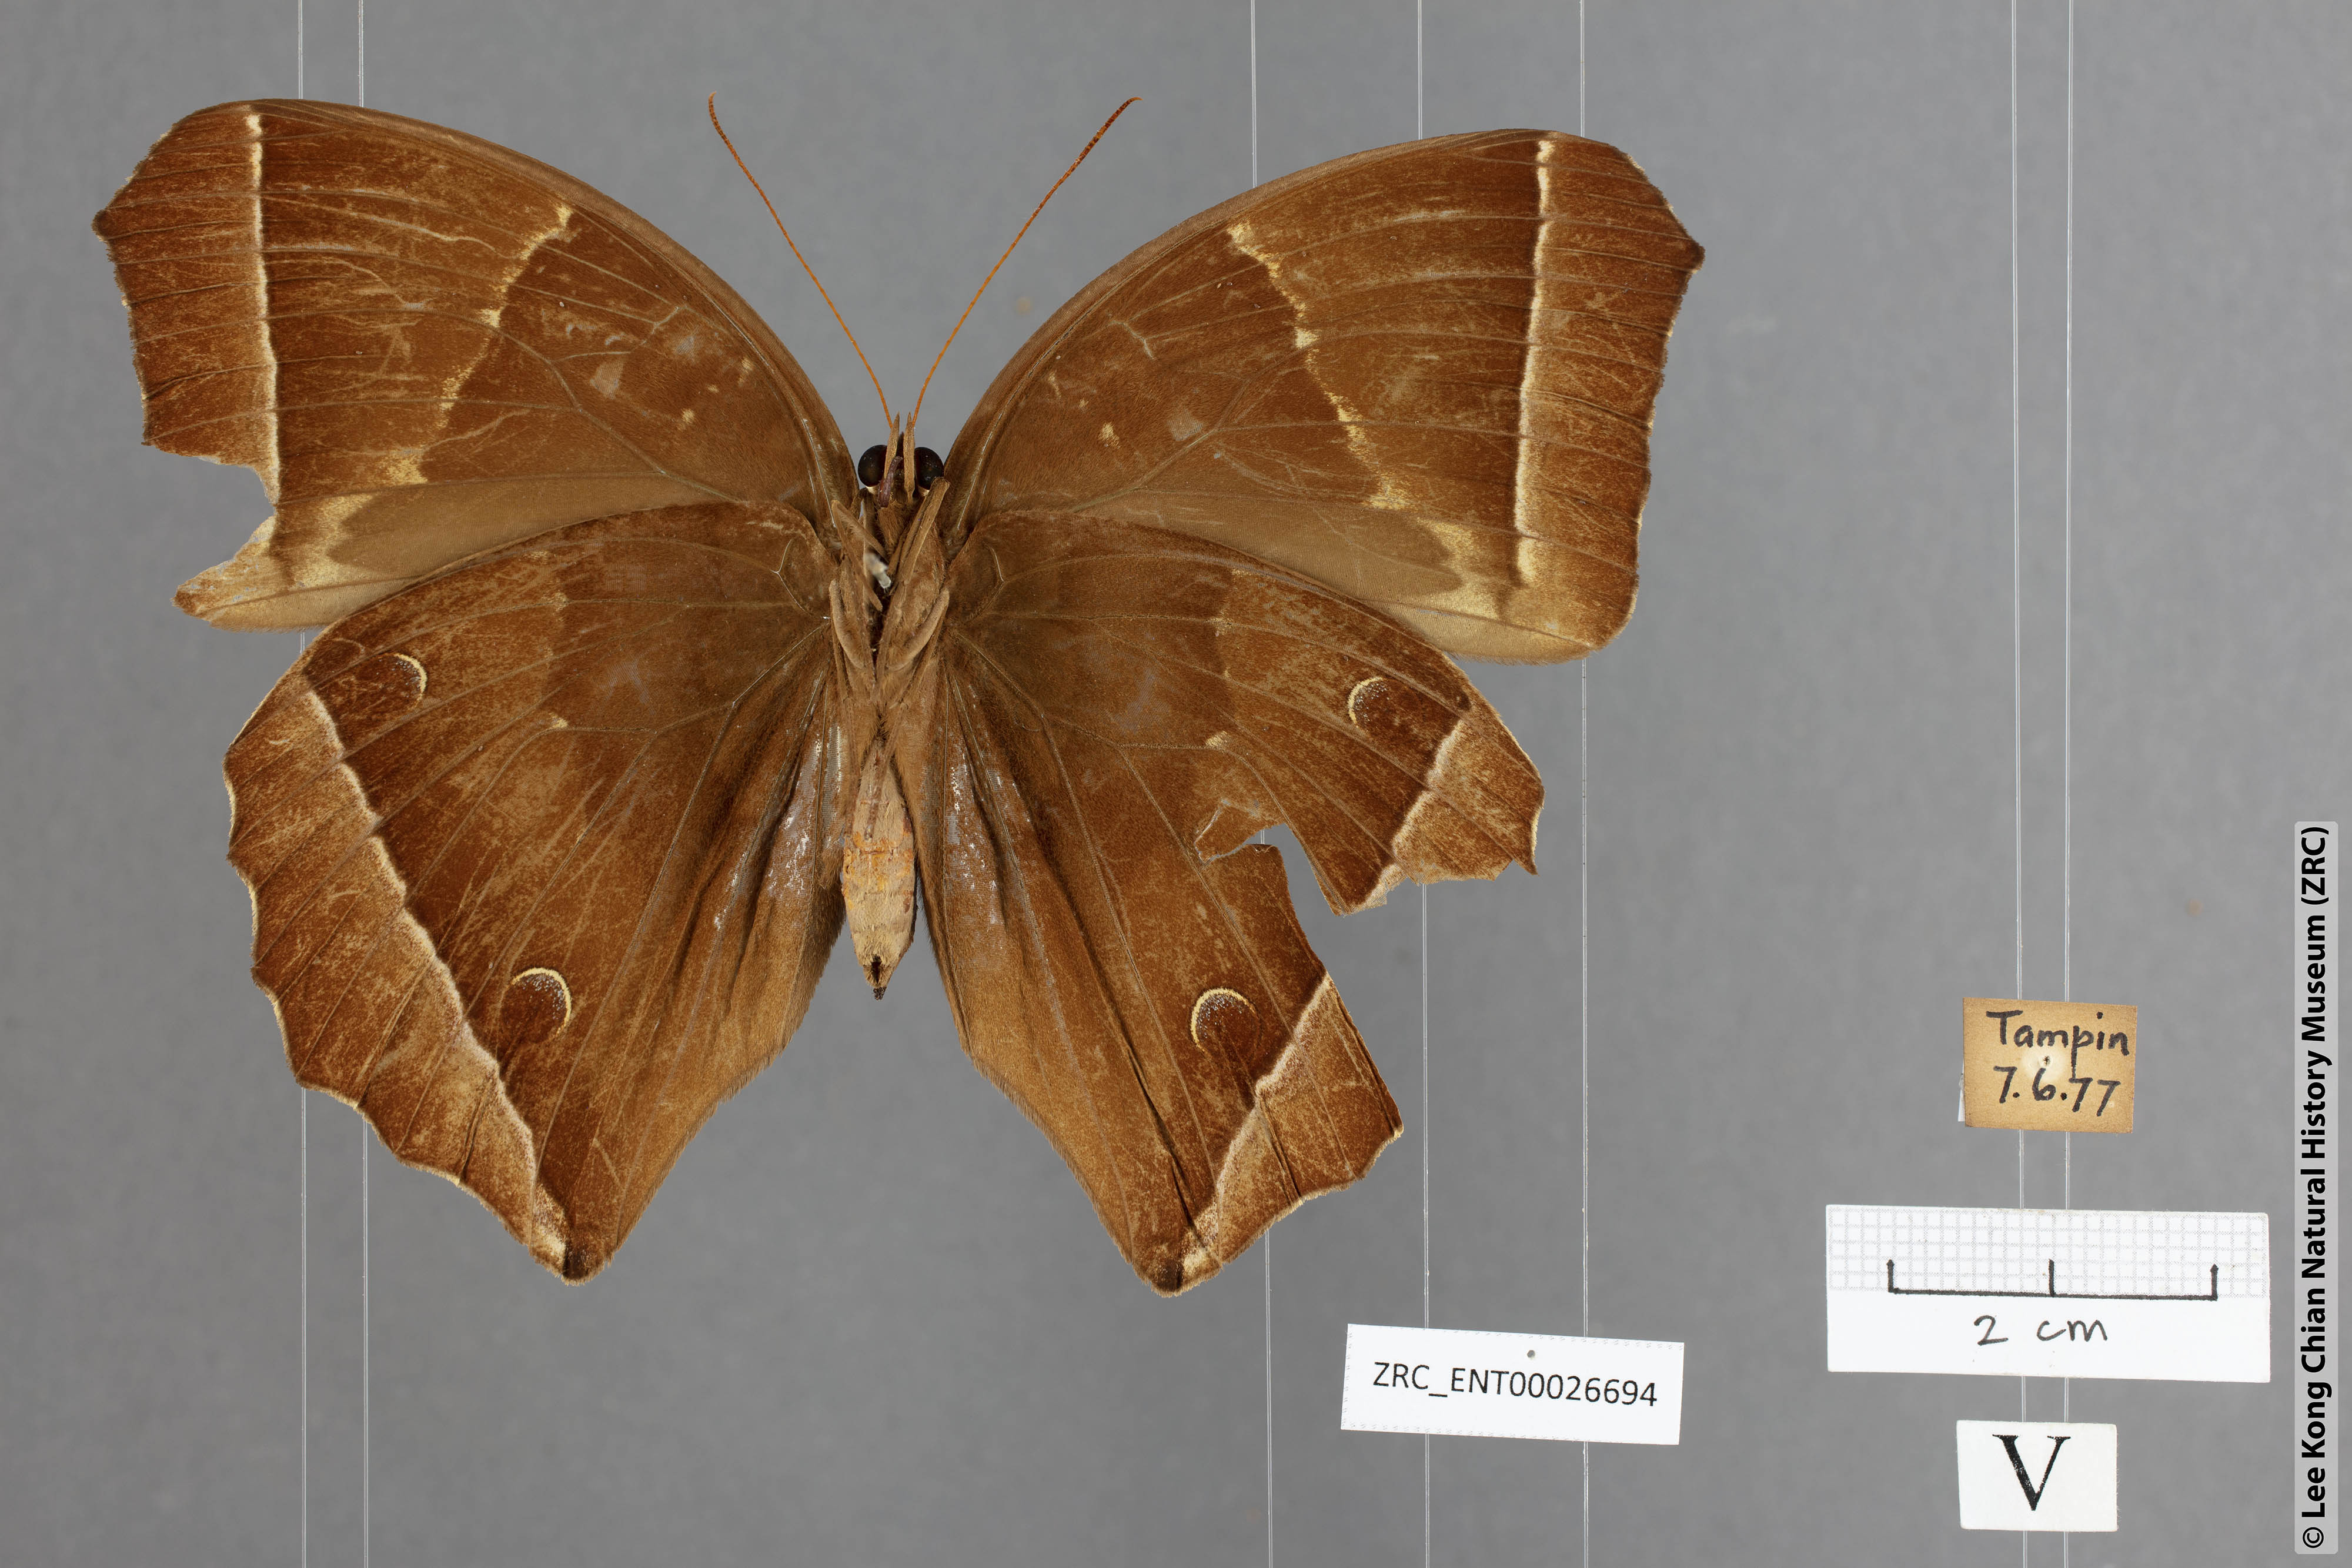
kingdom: Animalia
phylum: Arthropoda
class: Insecta
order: Lepidoptera
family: Nymphalidae
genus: Thaumantis
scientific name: Thaumantis noureddin
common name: Dark jungle glory
